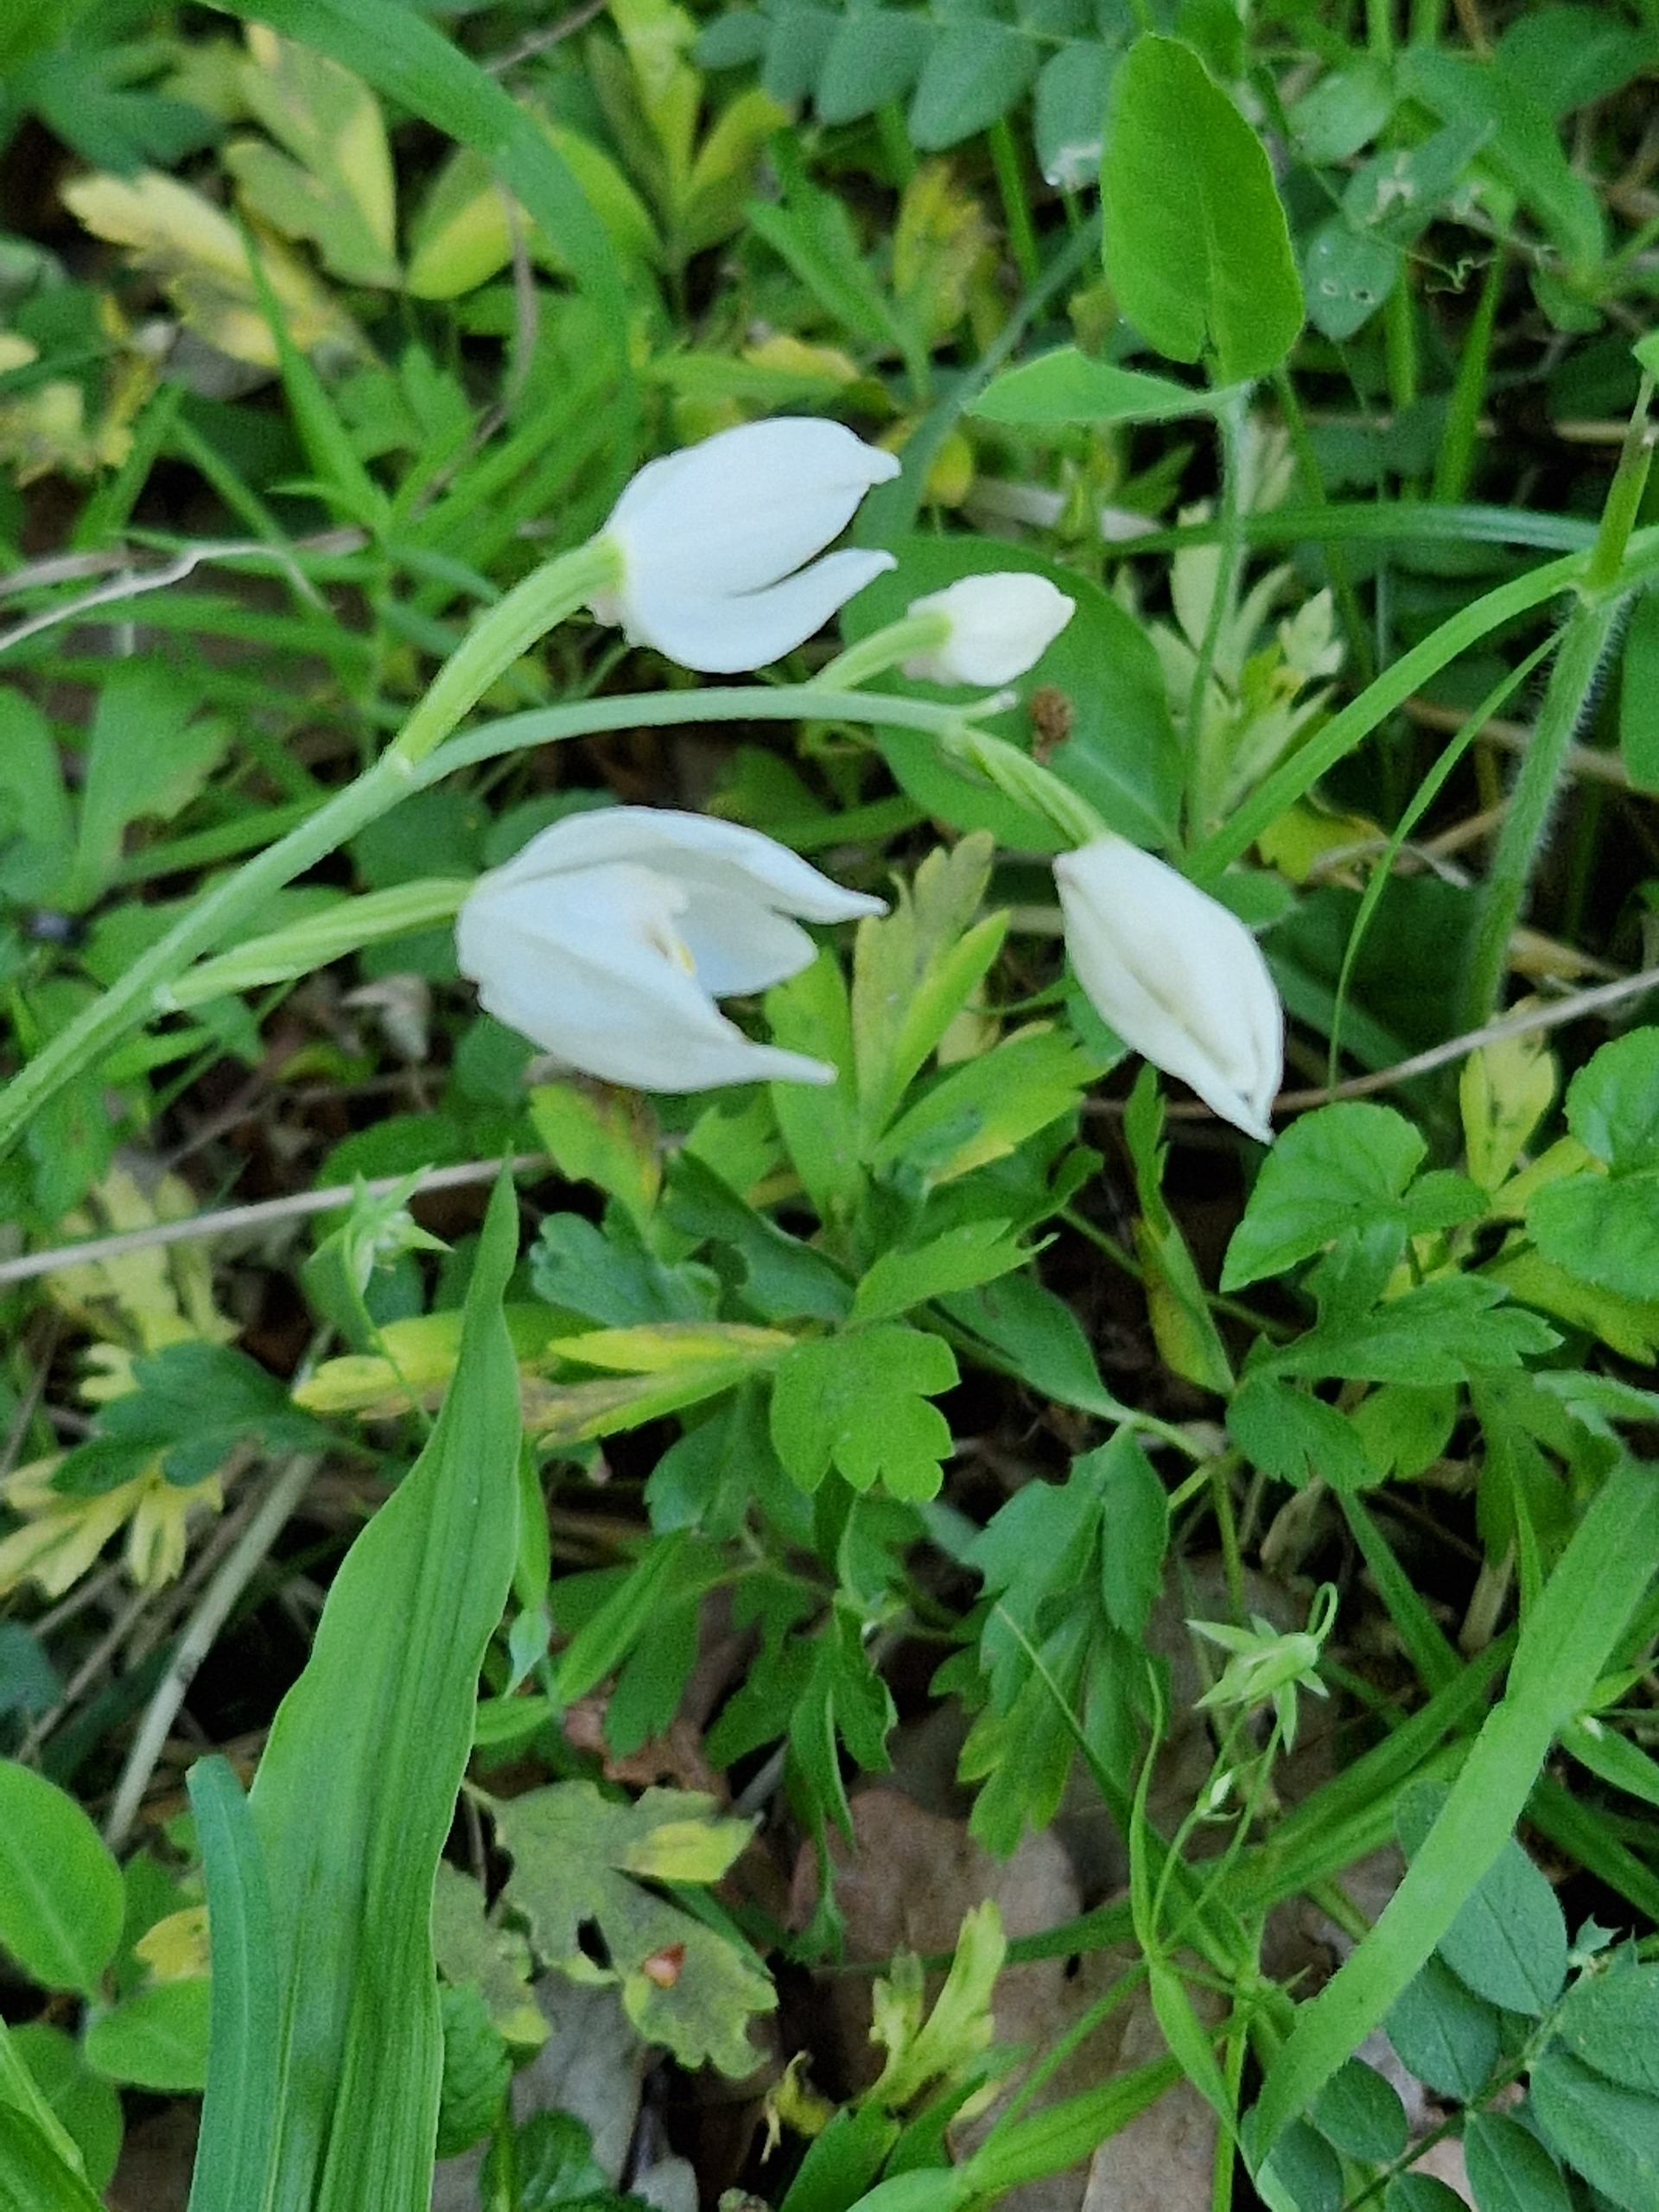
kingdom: Plantae
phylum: Tracheophyta
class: Liliopsida
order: Asparagales
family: Orchidaceae
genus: Cephalanthera
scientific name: Cephalanthera longifolia
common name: Sværd-skovlilje
